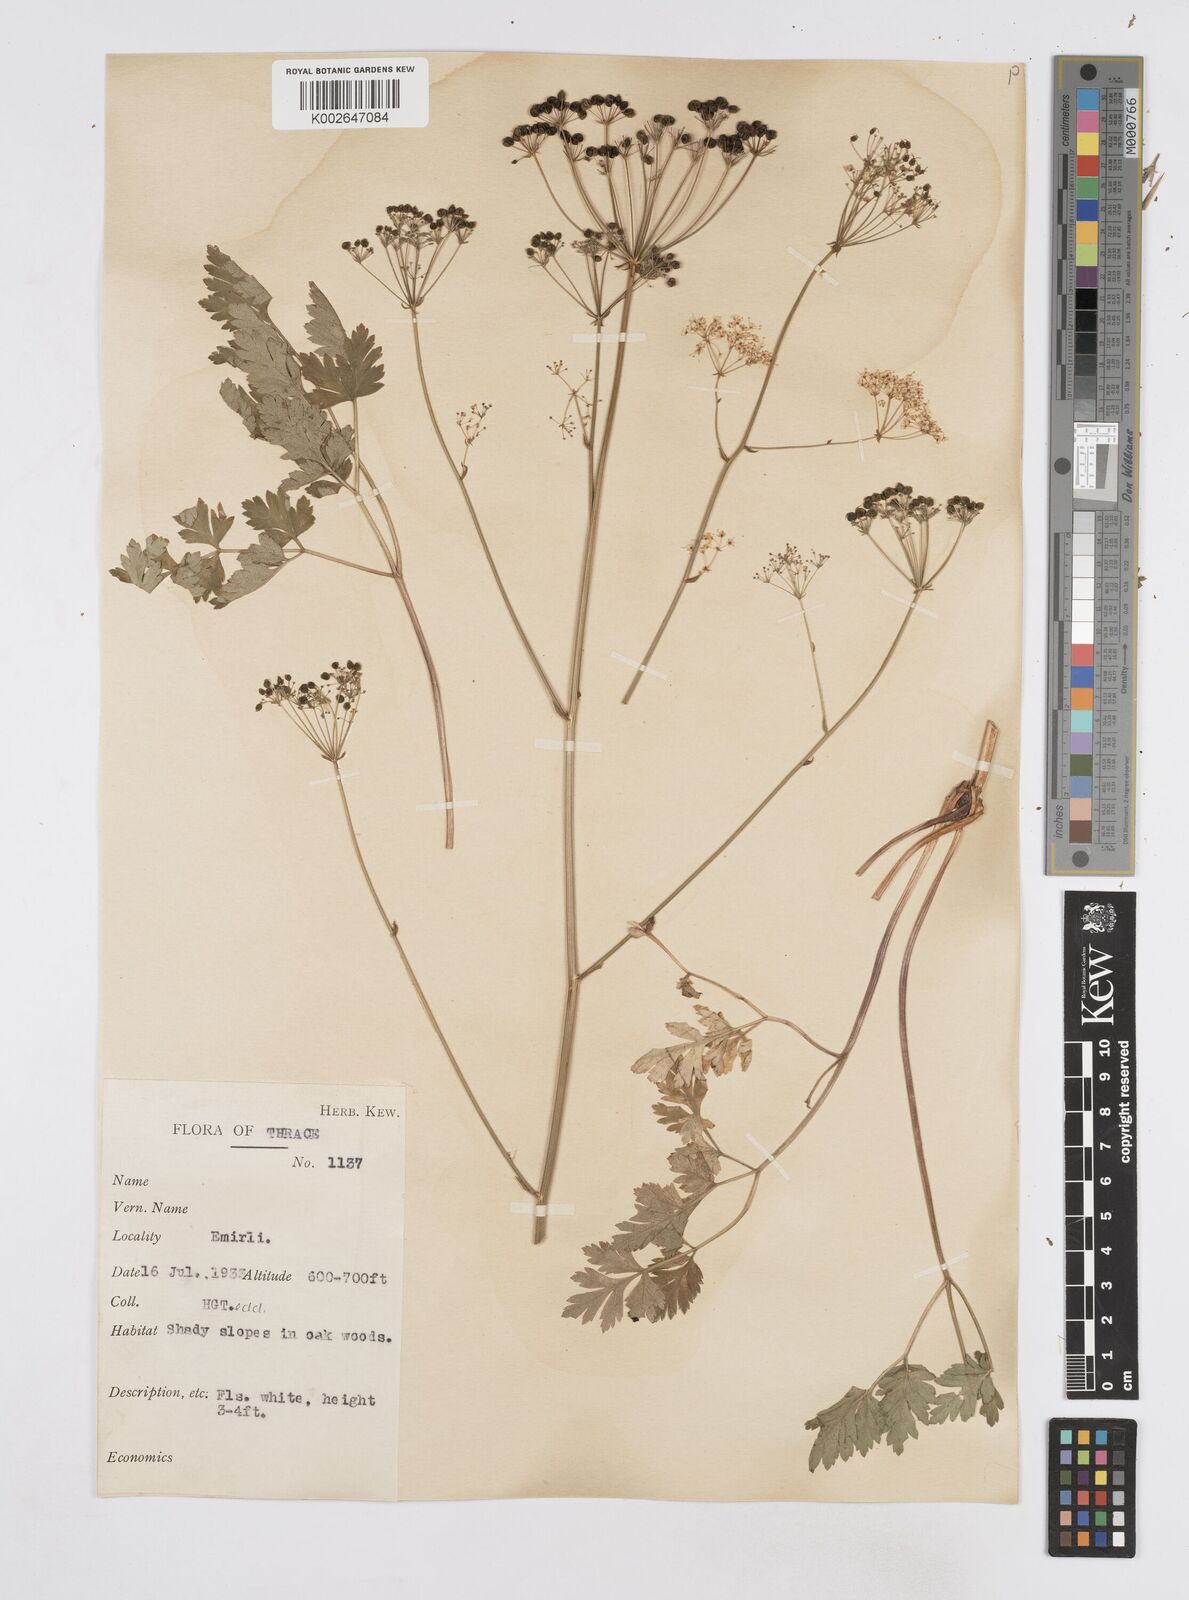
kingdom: Plantae
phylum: Tracheophyta
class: Magnoliopsida
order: Apiales
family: Apiaceae
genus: Physospermum
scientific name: Physospermum cornubiense
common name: Bladderseed
